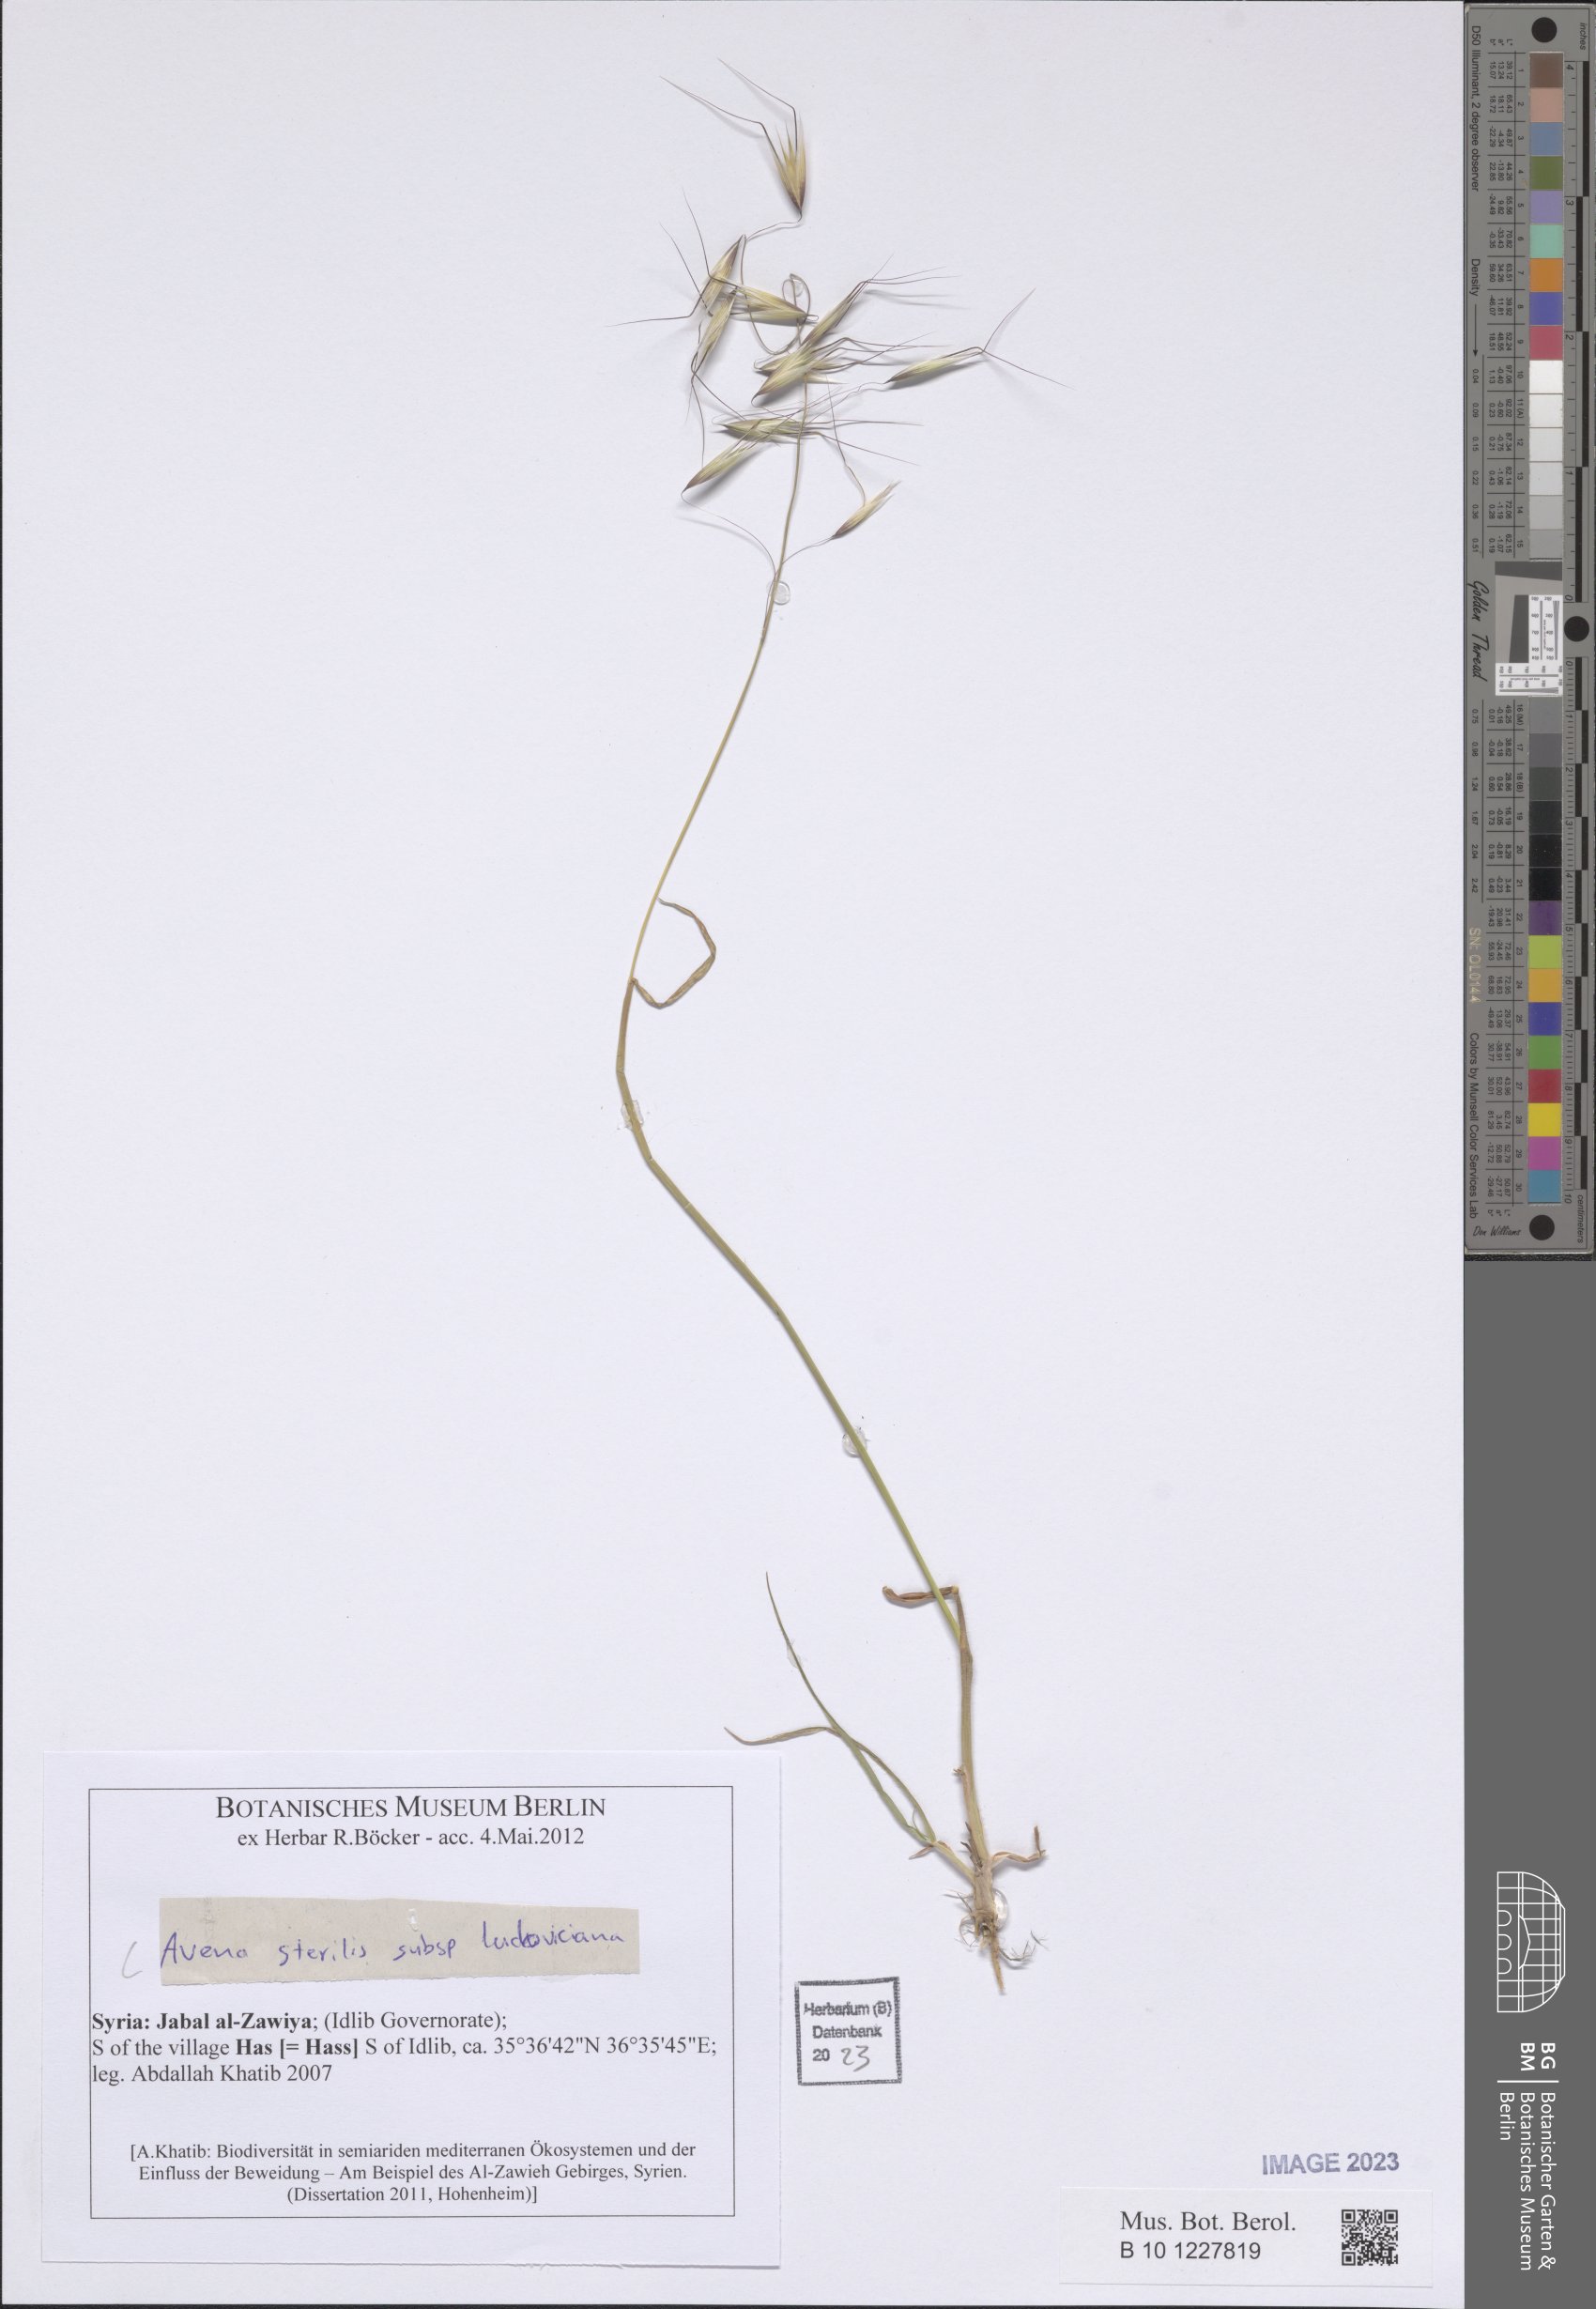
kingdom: Plantae
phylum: Tracheophyta
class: Liliopsida
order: Poales
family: Poaceae
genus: Avena
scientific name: Avena sterilis
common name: Animated oat
